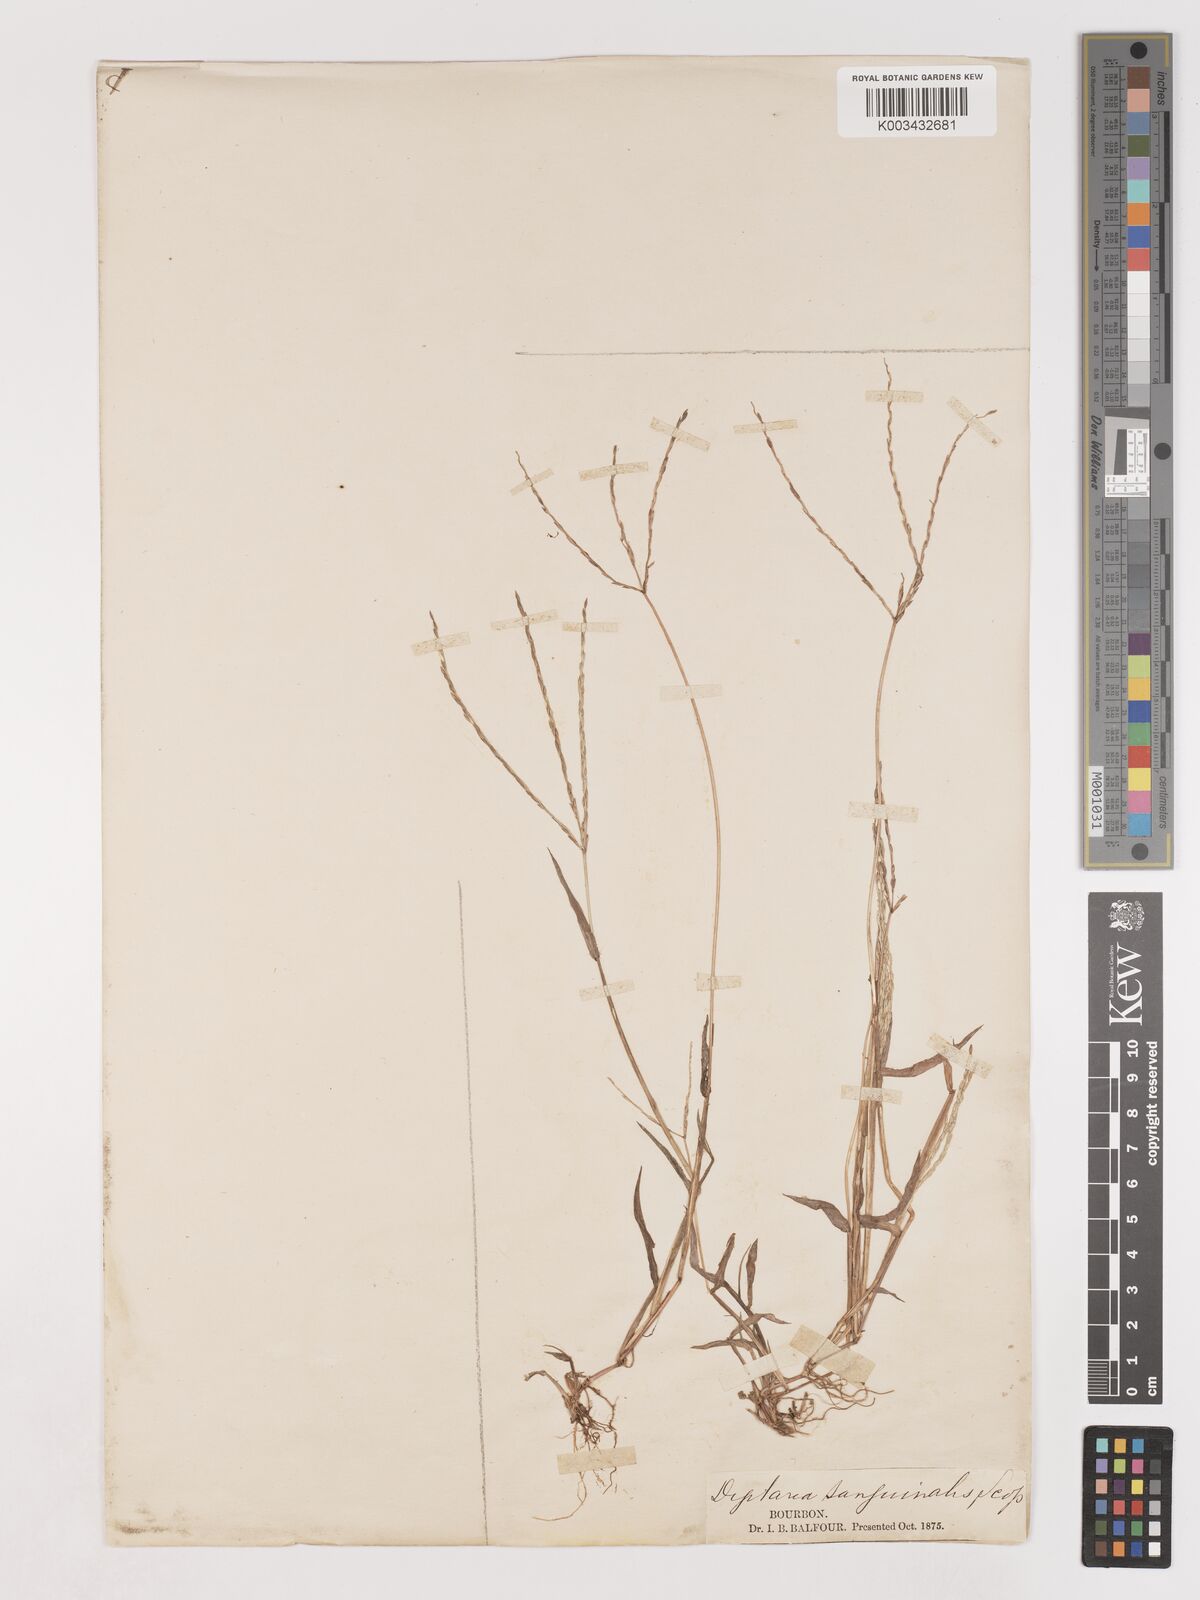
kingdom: Plantae
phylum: Tracheophyta
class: Liliopsida
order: Poales
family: Poaceae
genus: Digitaria
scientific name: Digitaria ciliaris
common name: Tropical finger-grass
